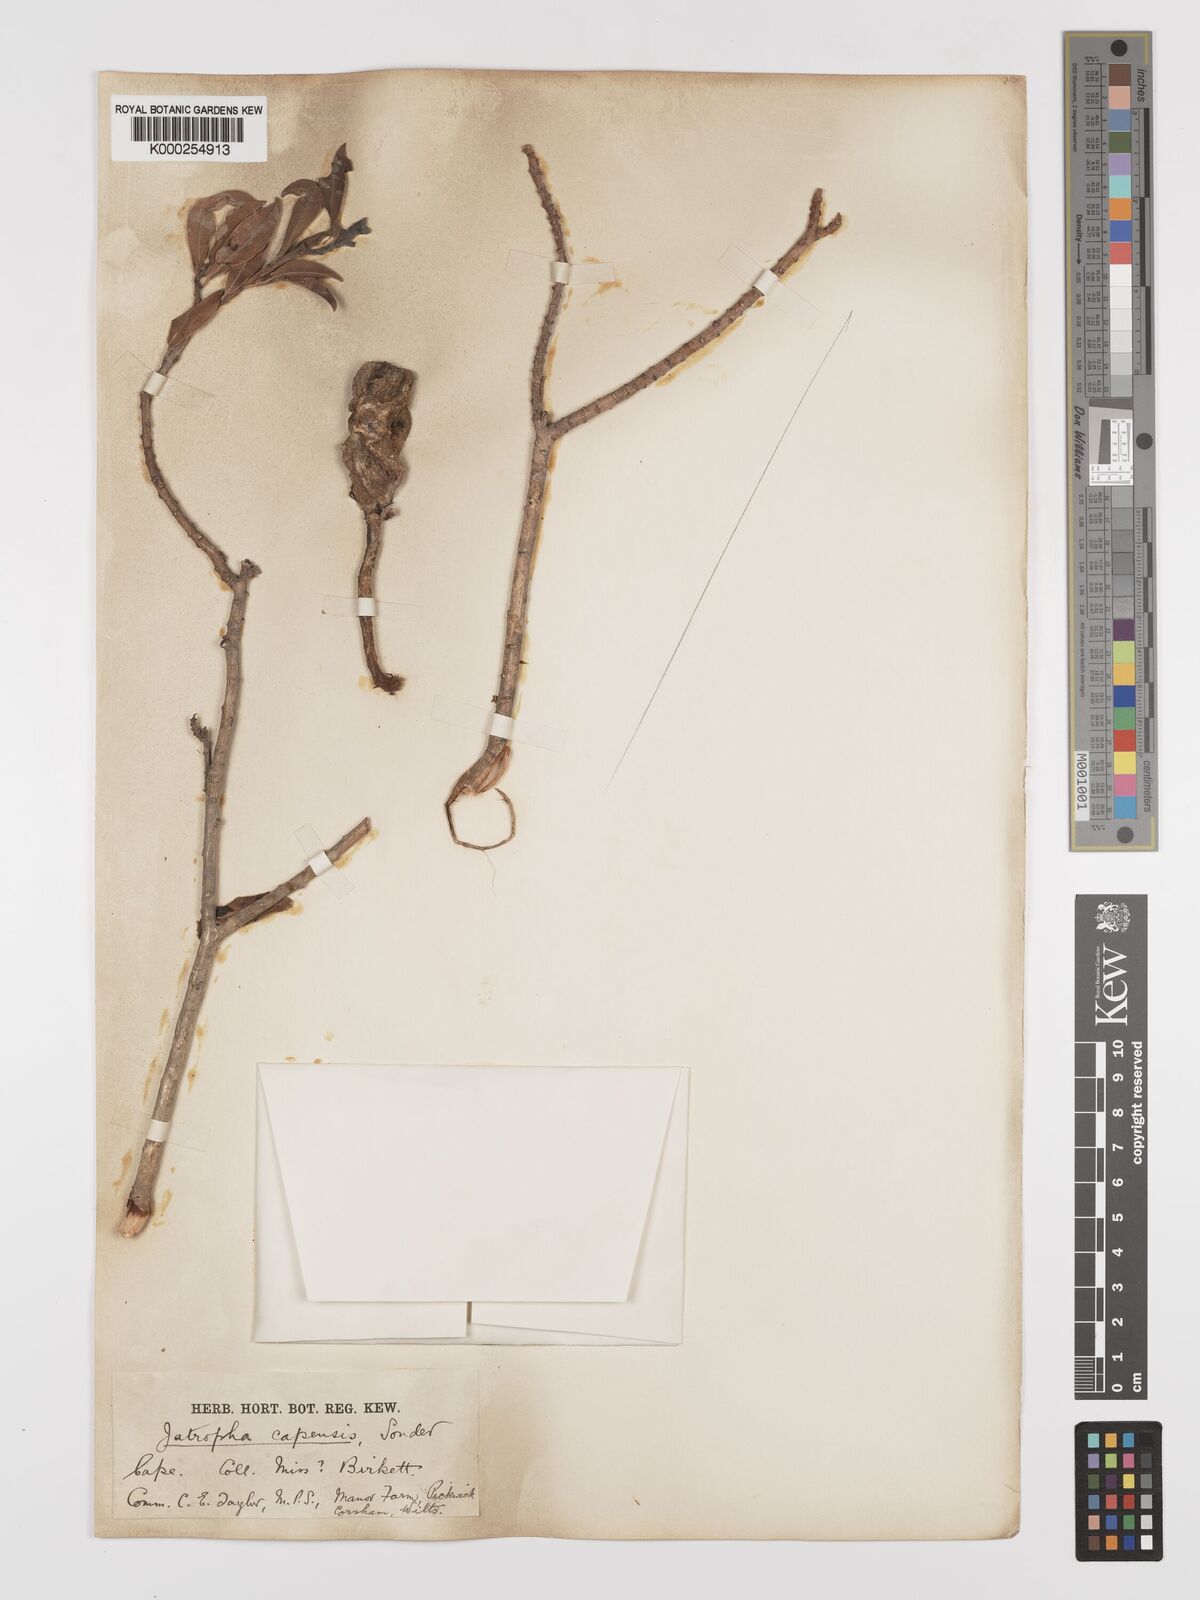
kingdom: Plantae
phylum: Tracheophyta
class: Magnoliopsida
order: Malpighiales
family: Euphorbiaceae
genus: Jatropha
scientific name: Jatropha capensis
